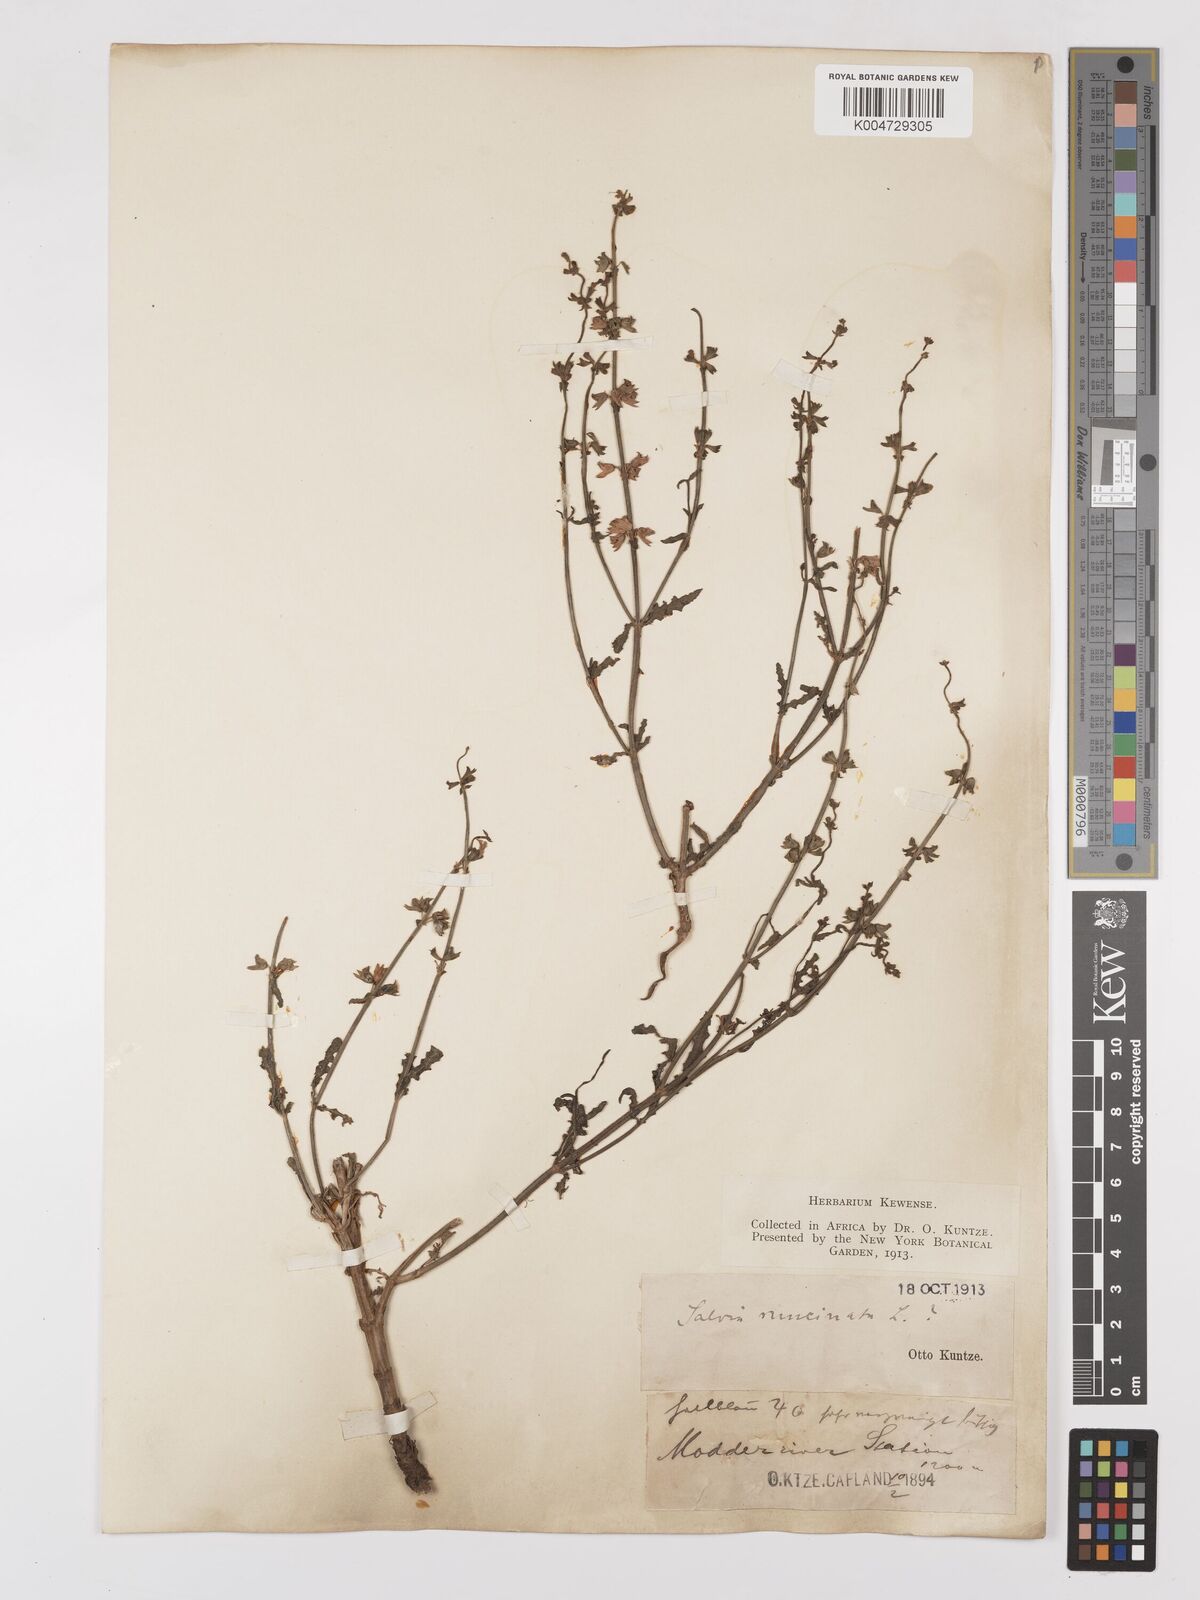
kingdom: Plantae
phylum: Tracheophyta
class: Magnoliopsida
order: Lamiales
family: Lamiaceae
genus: Salvia
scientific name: Salvia runcinata
